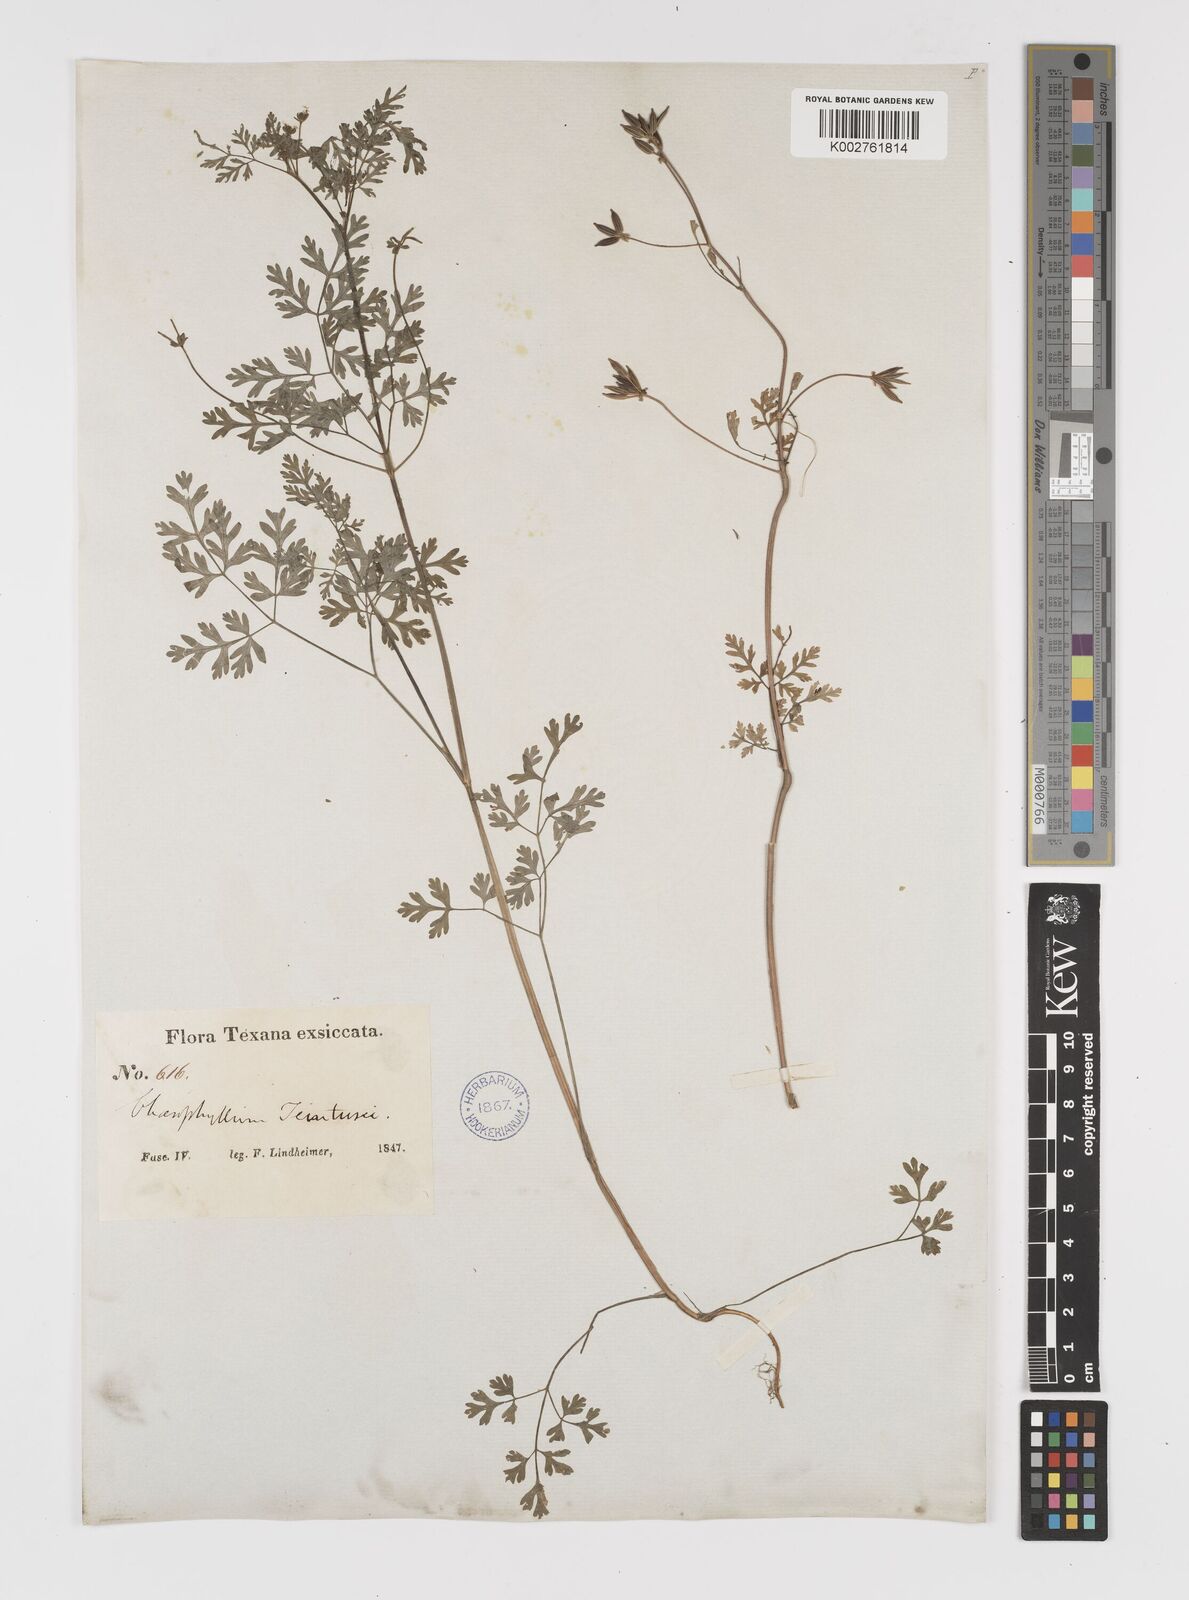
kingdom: Plantae
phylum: Tracheophyta
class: Magnoliopsida
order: Apiales
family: Apiaceae
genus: Chaerophyllum
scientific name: Chaerophyllum tainturieri
